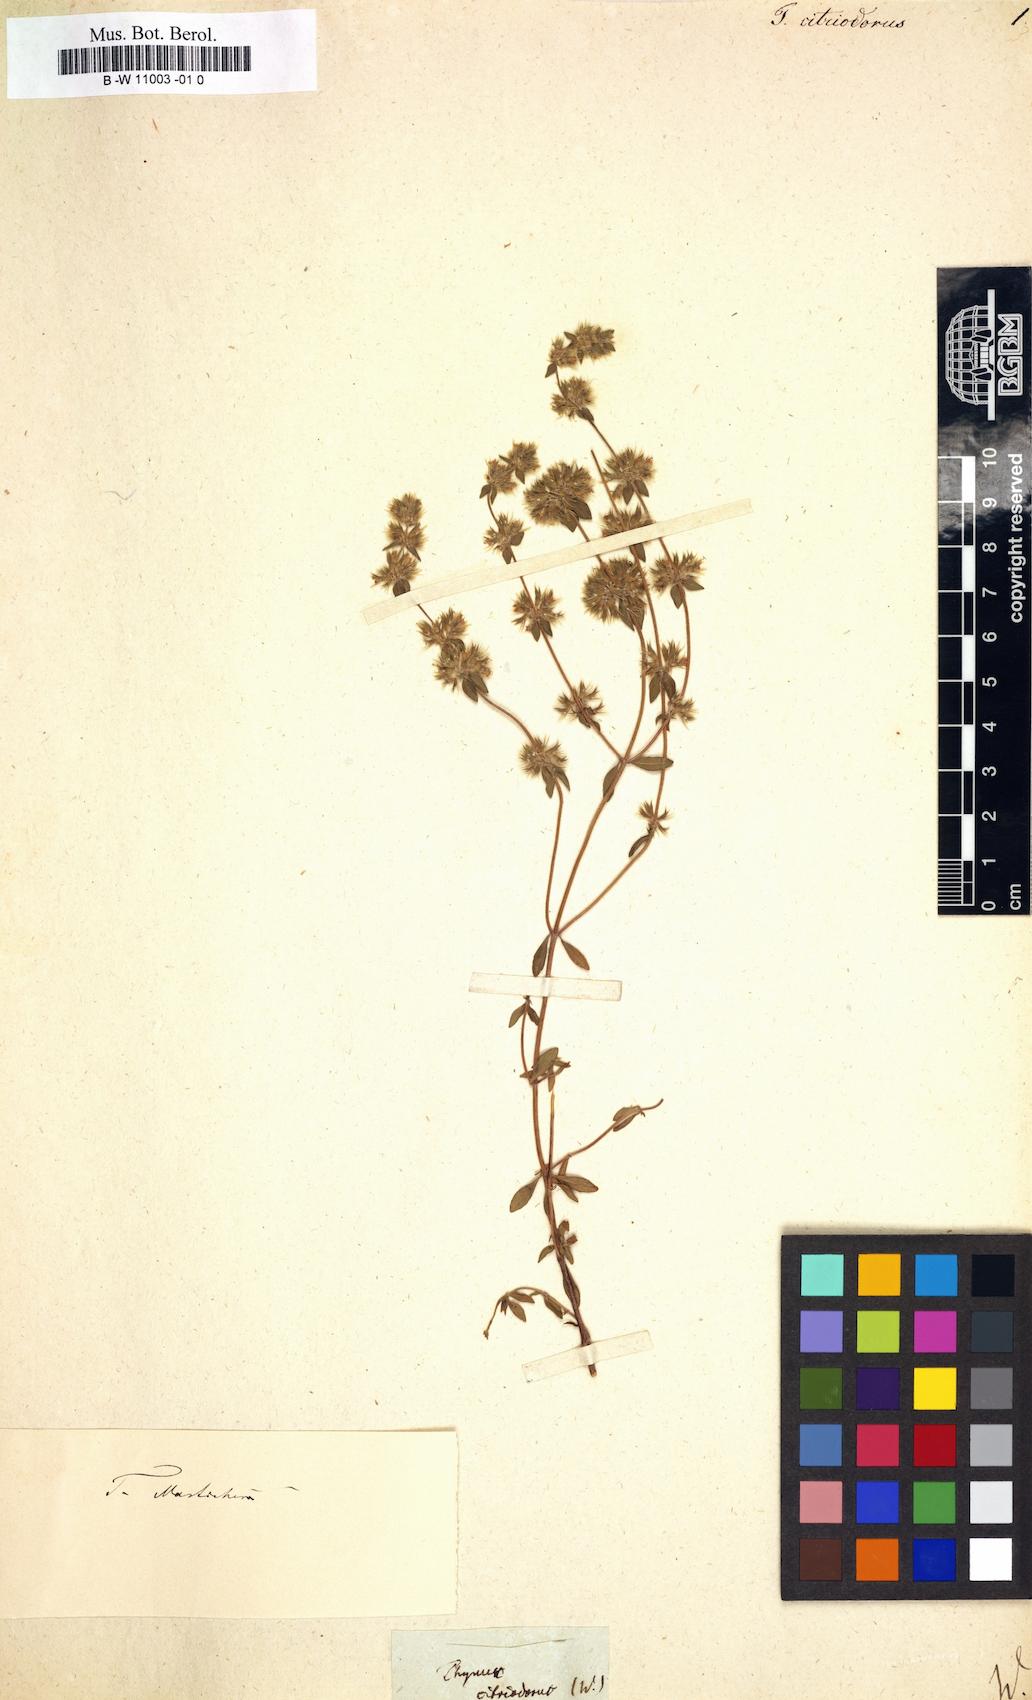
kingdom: Plantae
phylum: Tracheophyta
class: Magnoliopsida
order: Lamiales
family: Lamiaceae
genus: Thymus
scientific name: Thymus citriodorus
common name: Lemon thyme
